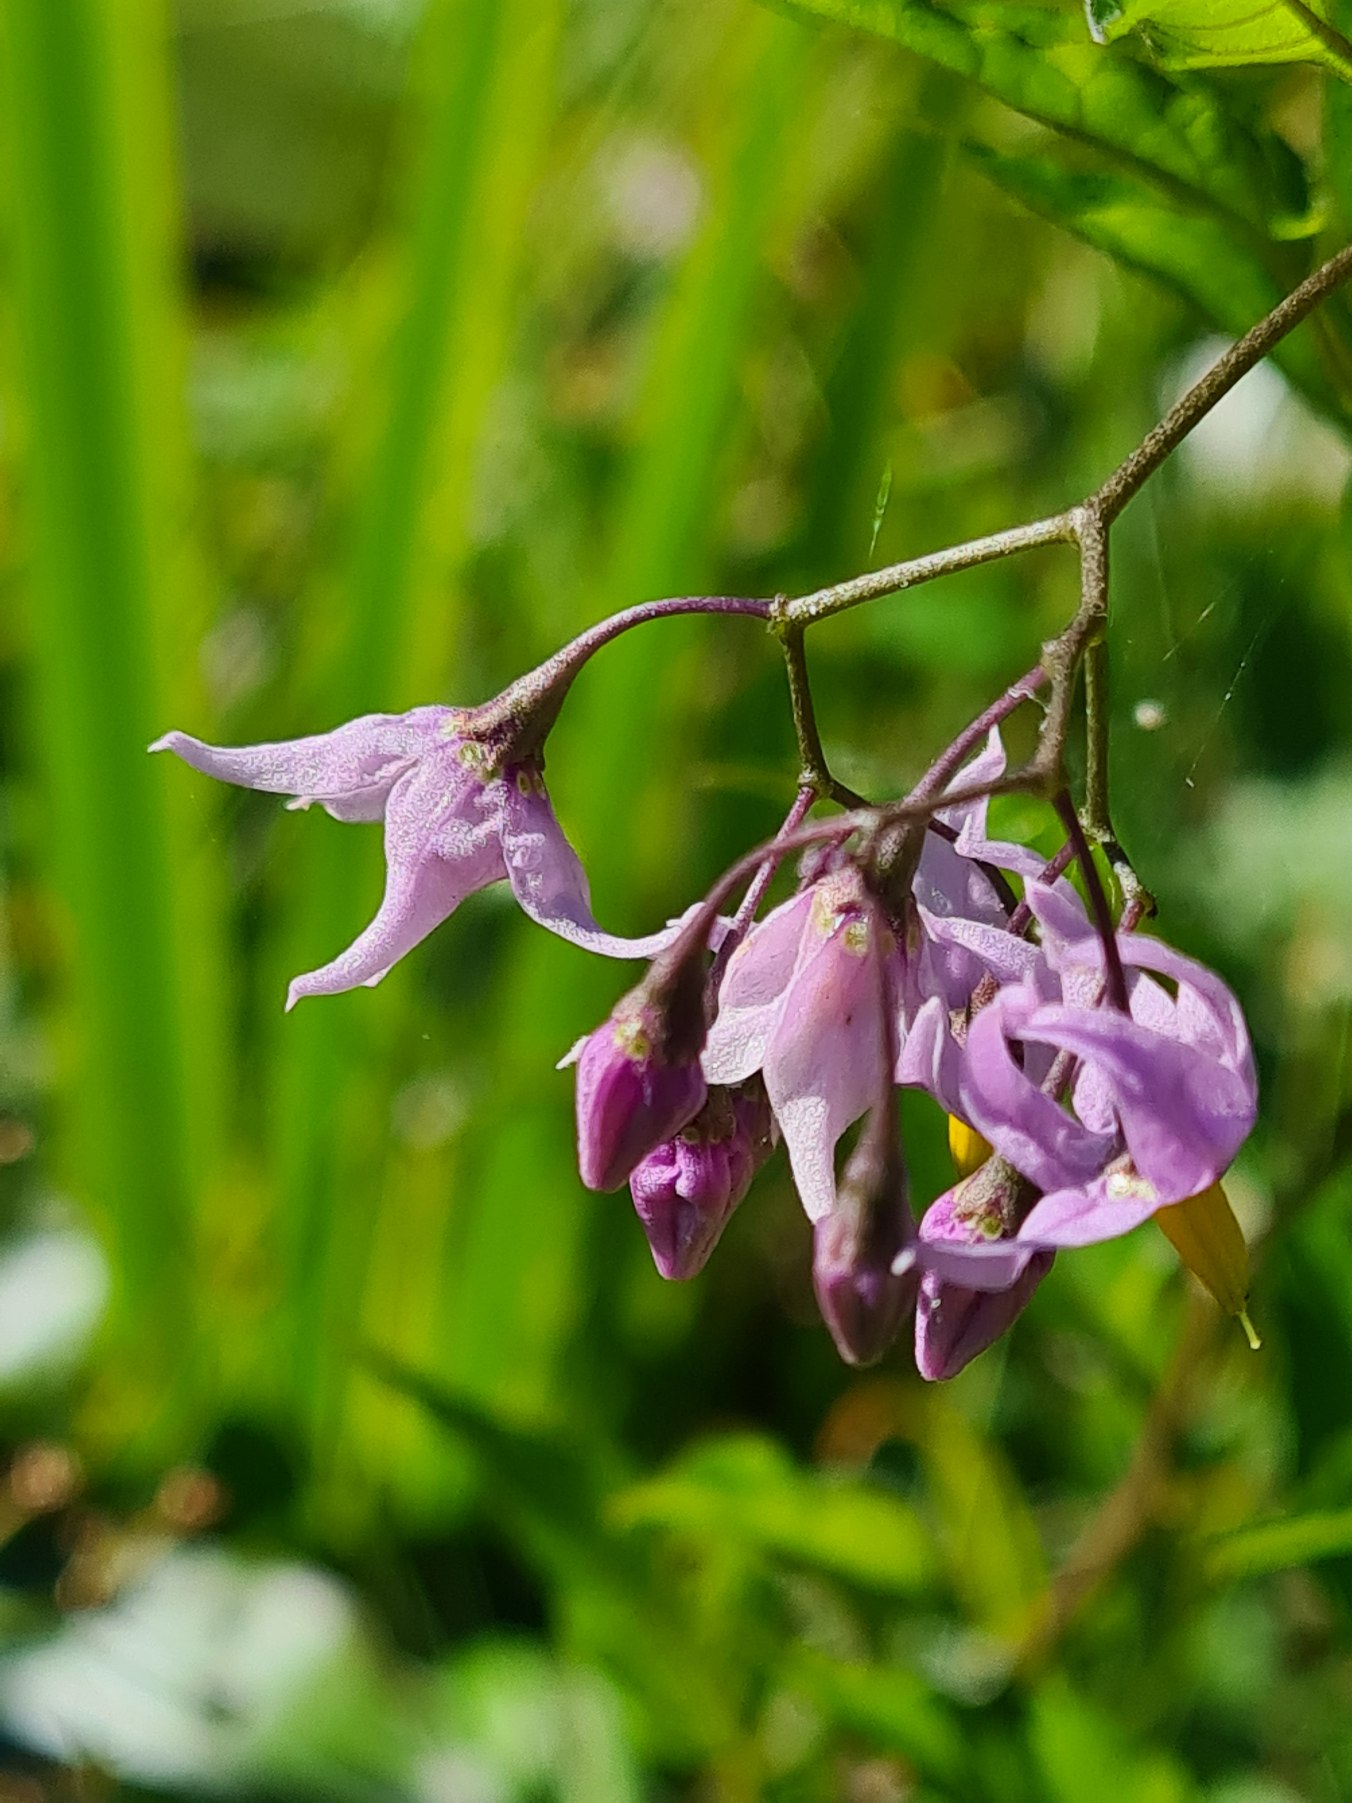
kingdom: Plantae
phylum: Tracheophyta
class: Magnoliopsida
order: Solanales
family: Solanaceae
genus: Solanum
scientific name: Solanum dulcamara
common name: Bittersød natskygge
